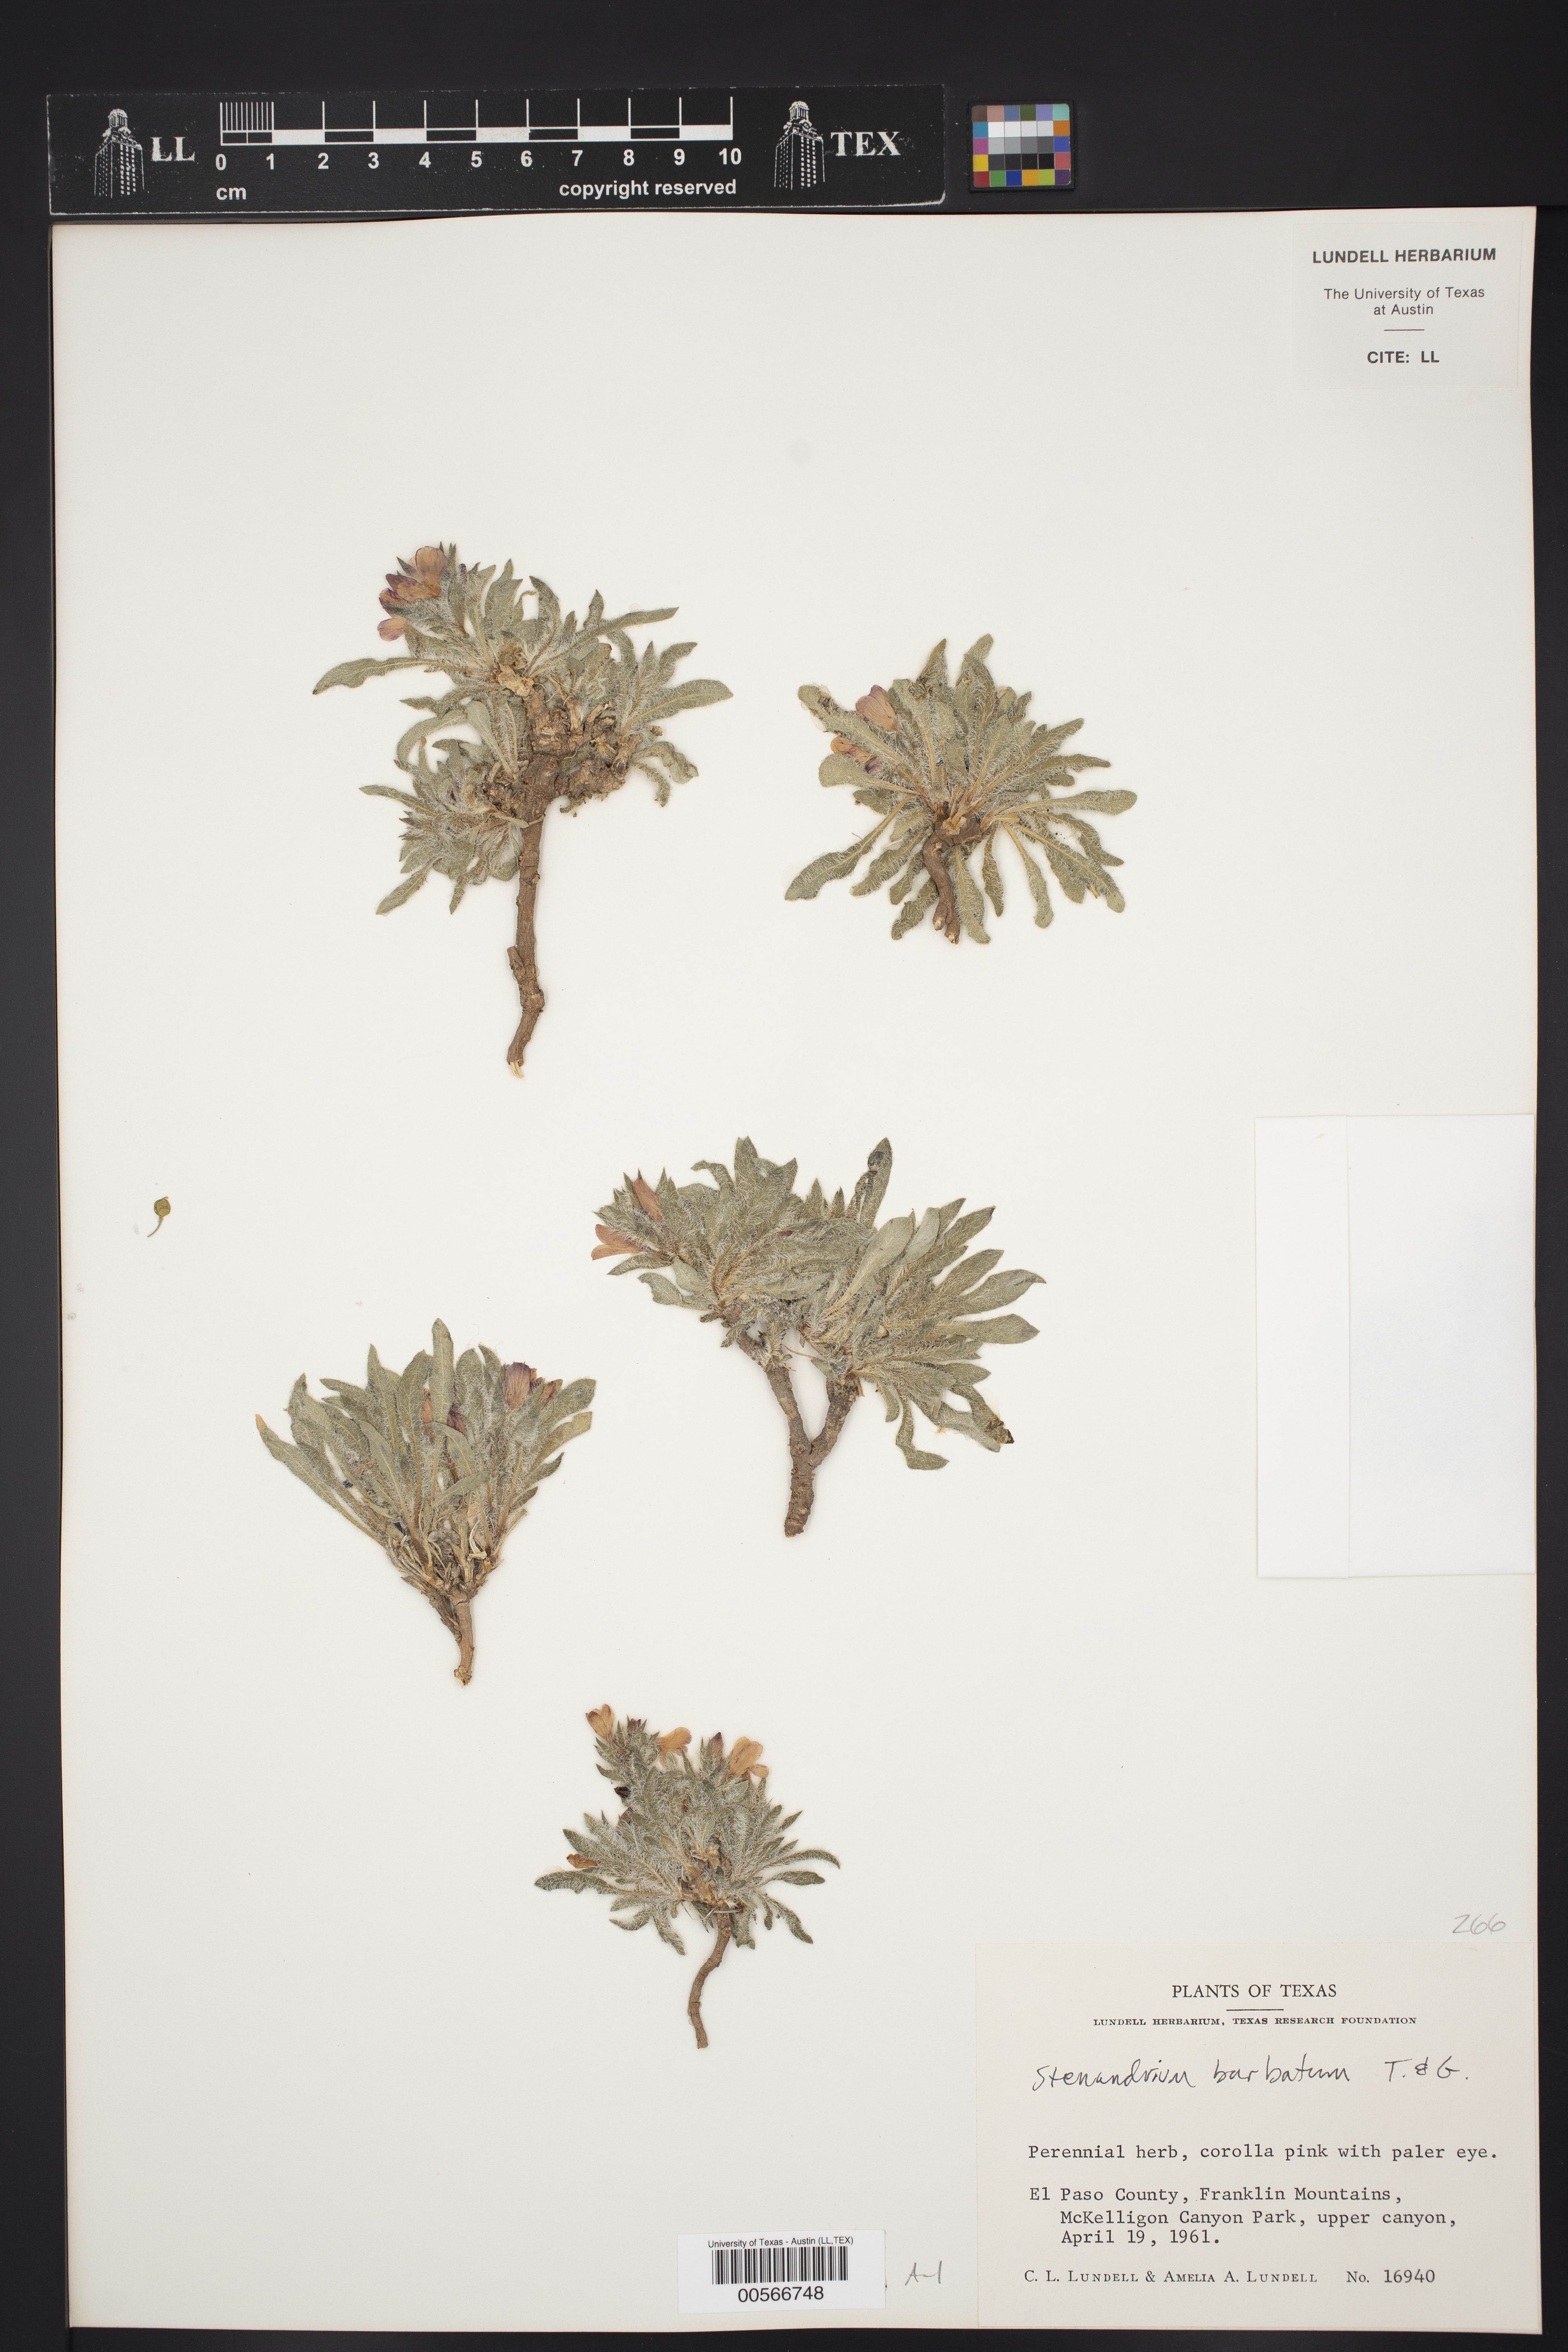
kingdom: Plantae
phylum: Tracheophyta
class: Magnoliopsida
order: Lamiales
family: Acanthaceae
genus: Stenandrium
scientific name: Stenandrium barbatum
